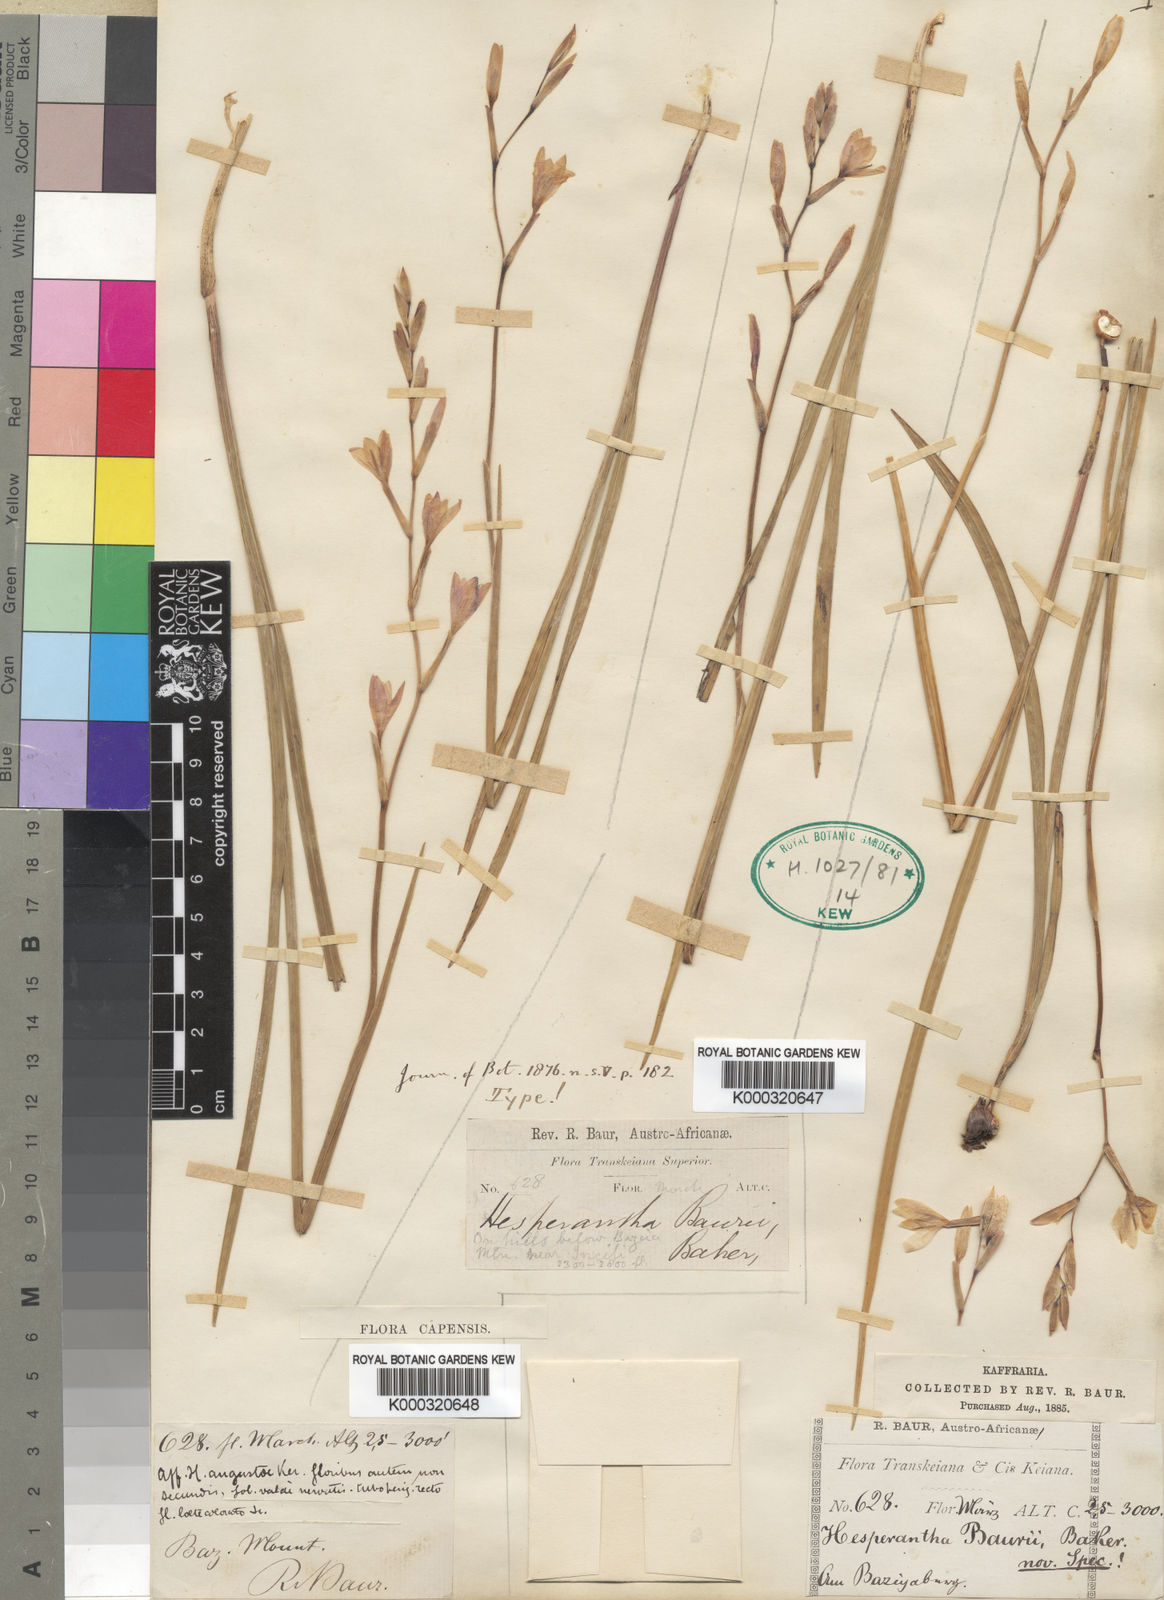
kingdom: Plantae
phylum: Tracheophyta
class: Liliopsida
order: Asparagales
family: Iridaceae
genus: Hesperantha
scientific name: Hesperantha baurii
